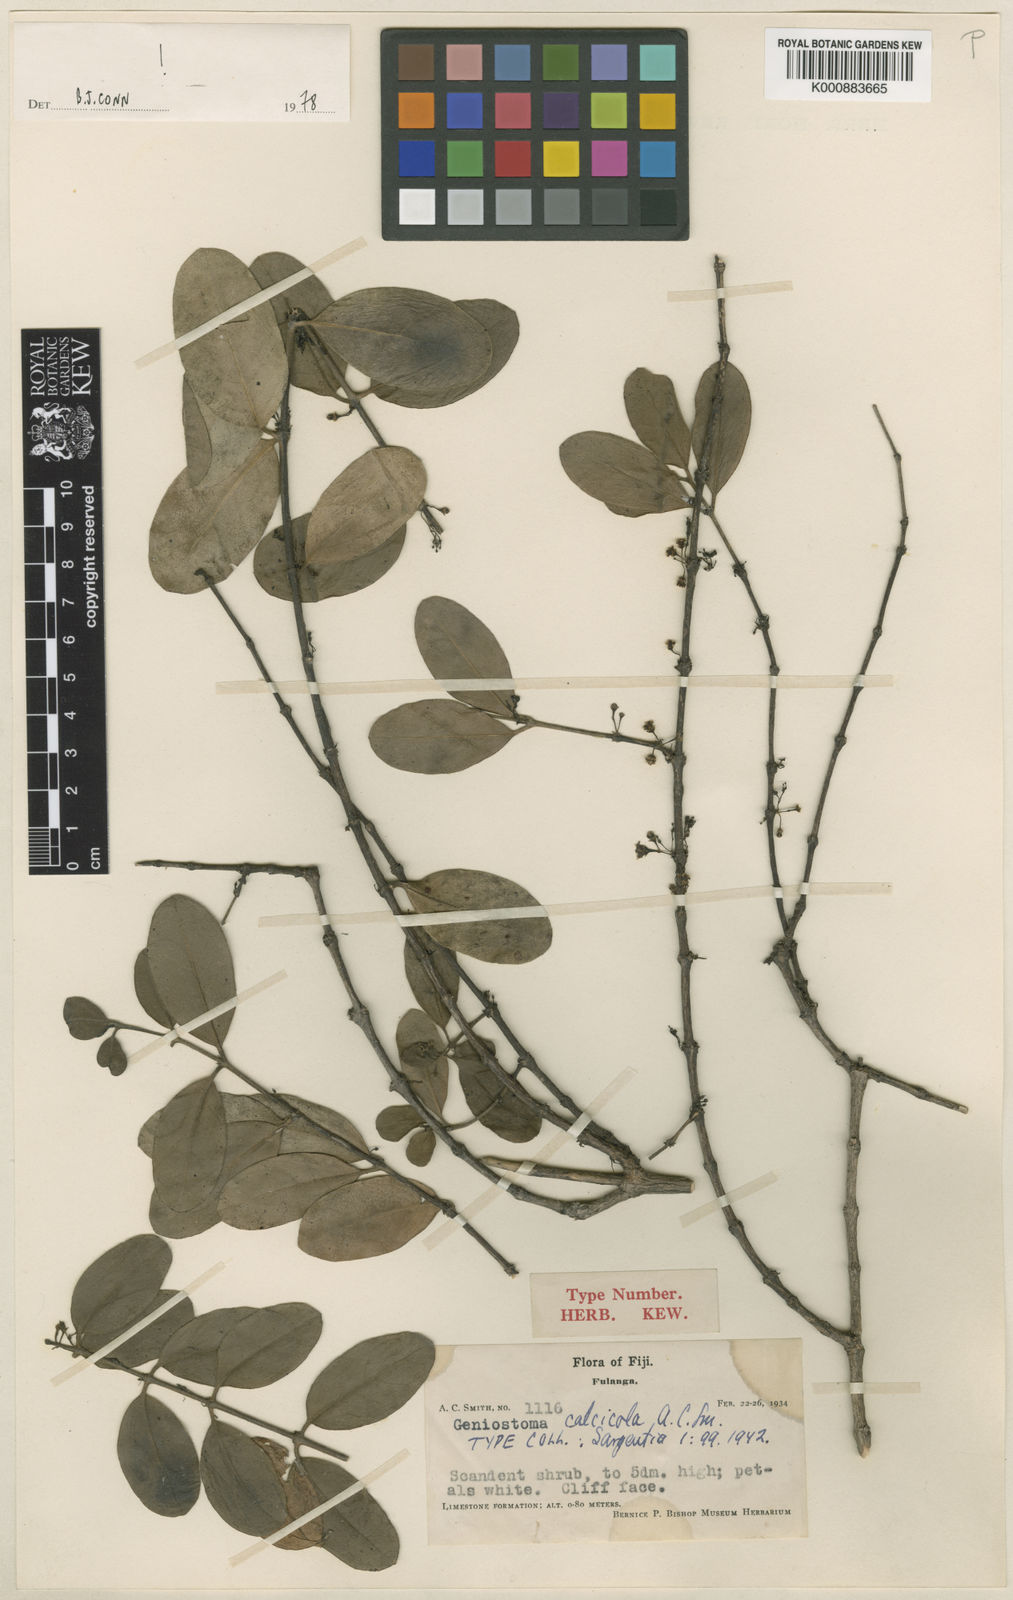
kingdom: Plantae
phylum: Tracheophyta
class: Magnoliopsida
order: Gentianales
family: Loganiaceae
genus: Geniostoma
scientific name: Geniostoma calcicola
